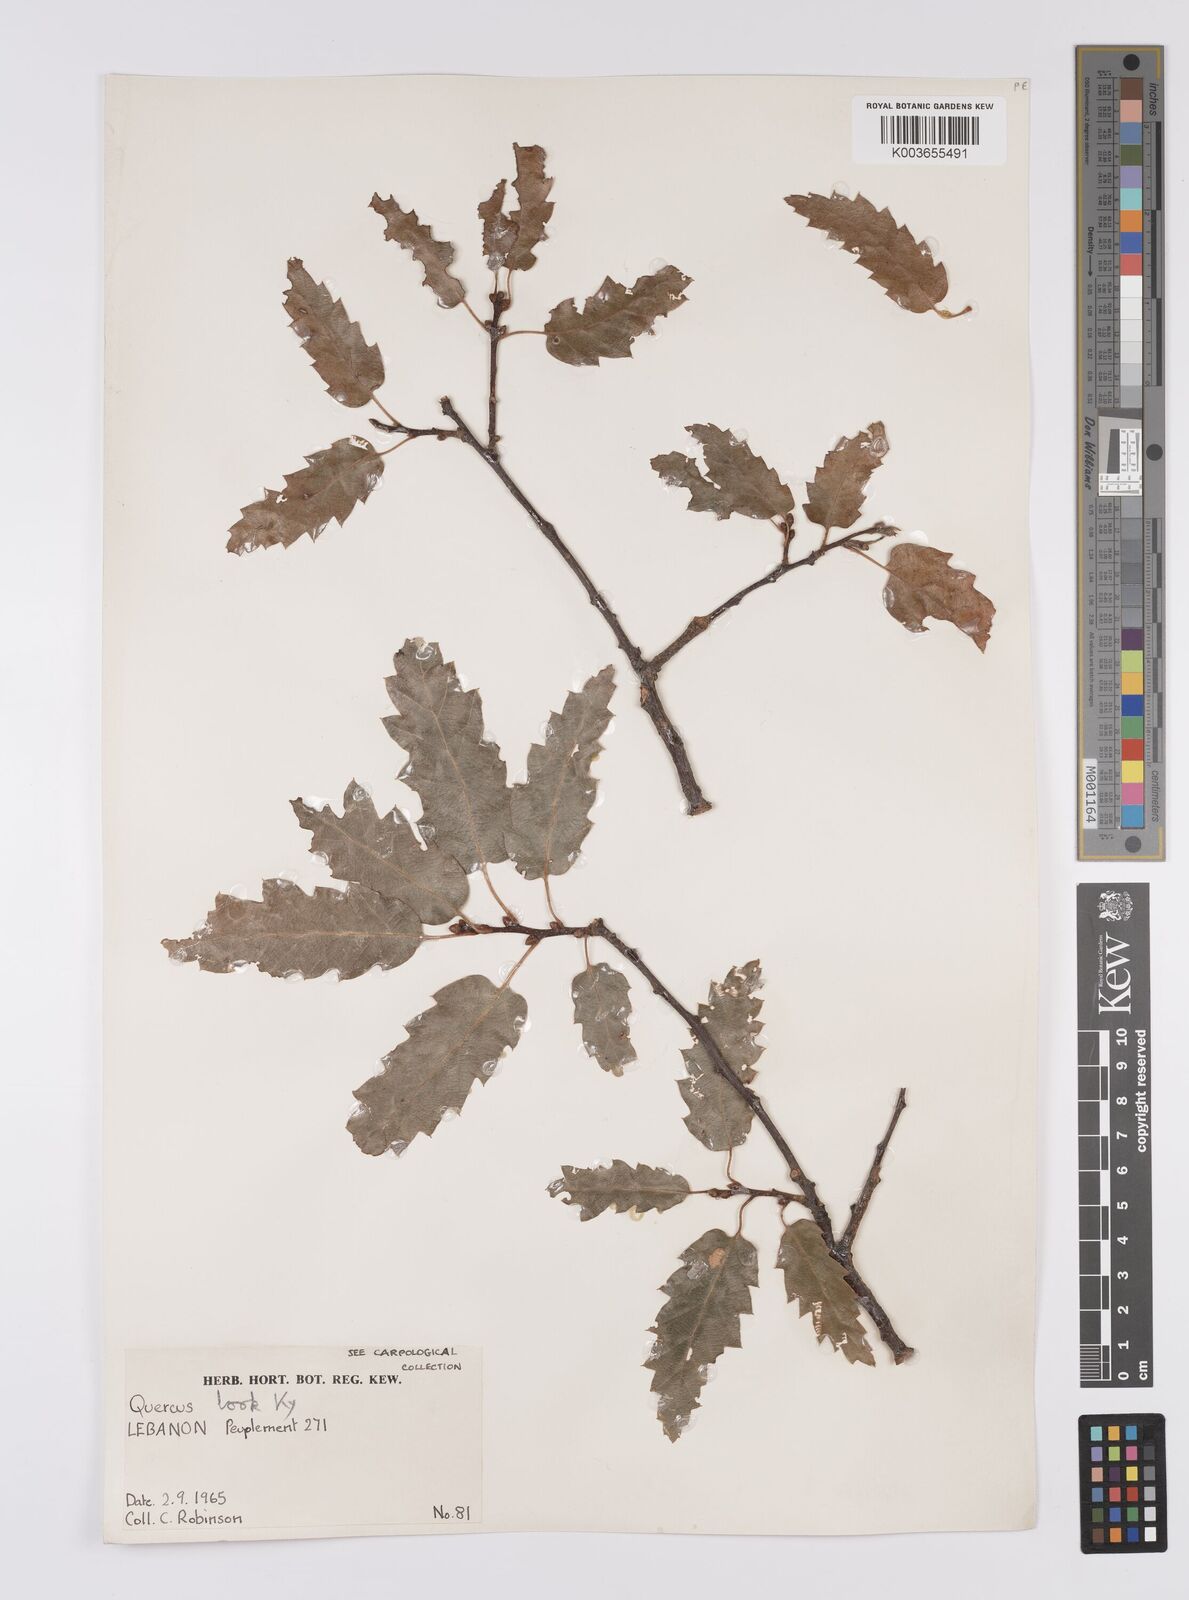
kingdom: Plantae
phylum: Tracheophyta
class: Magnoliopsida
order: Fagales
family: Fagaceae
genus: Quercus
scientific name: Quercus look
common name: Look oak
